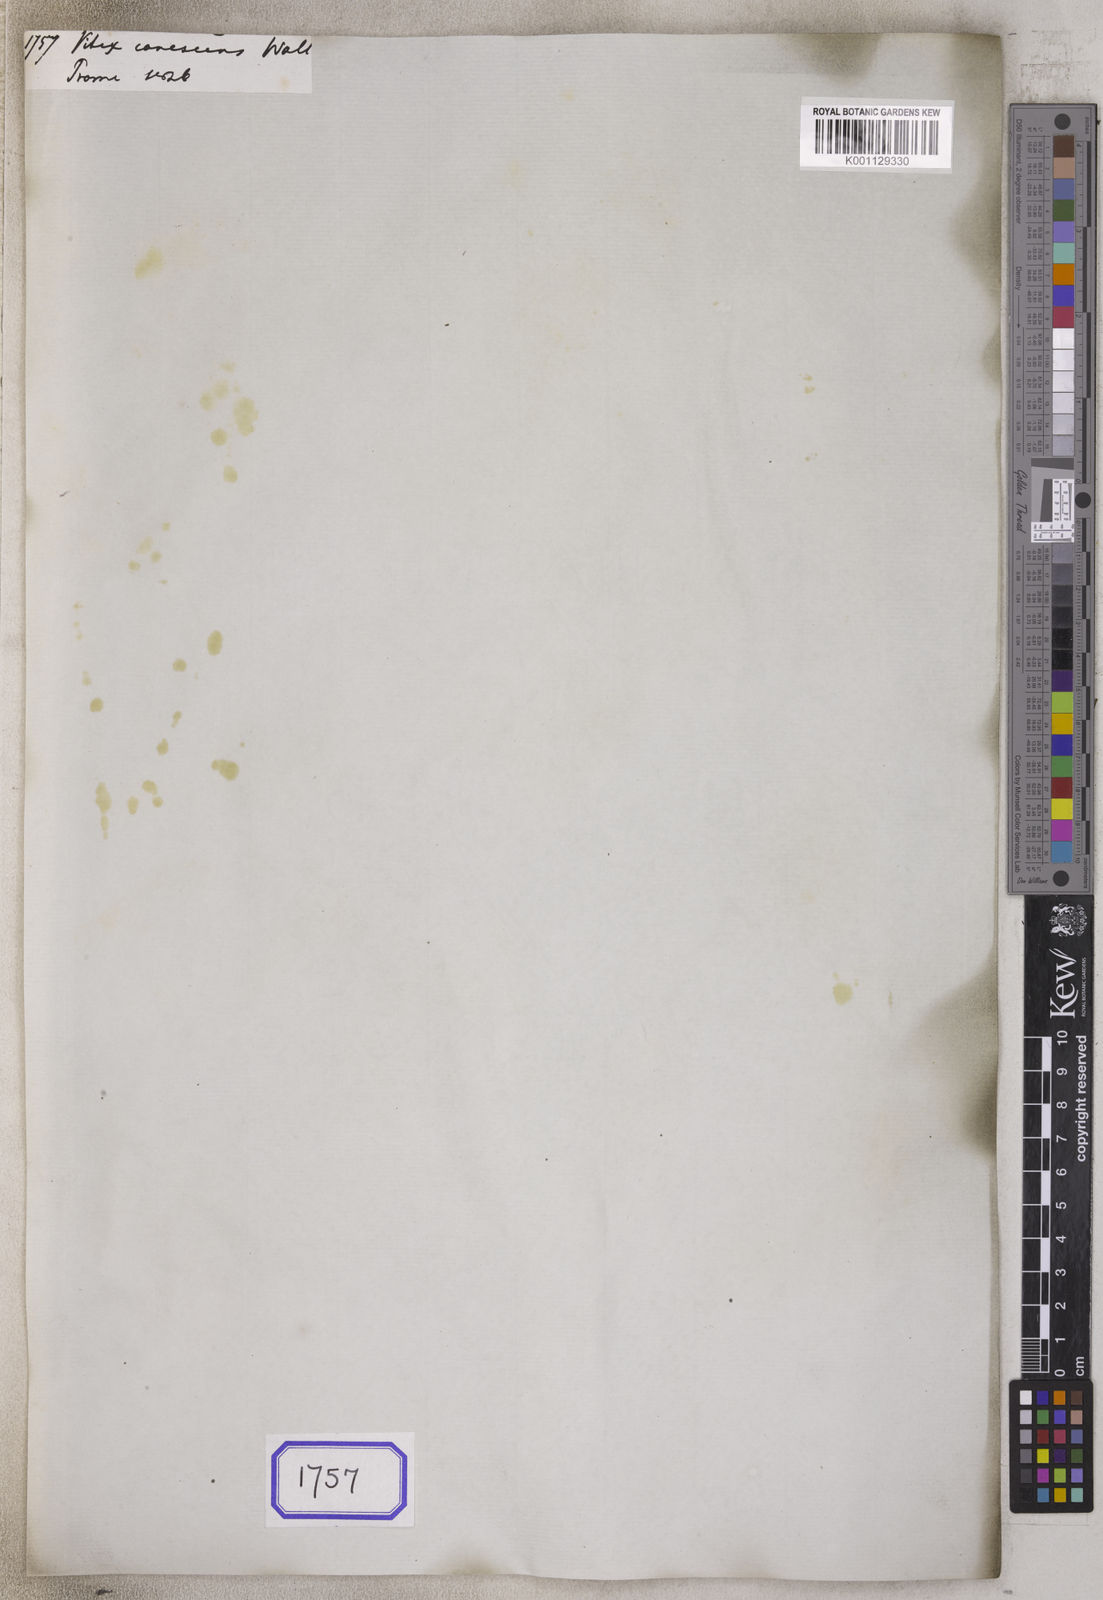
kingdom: Plantae
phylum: Tracheophyta
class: Magnoliopsida
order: Lamiales
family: Lamiaceae
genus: Vitex
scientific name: Vitex
